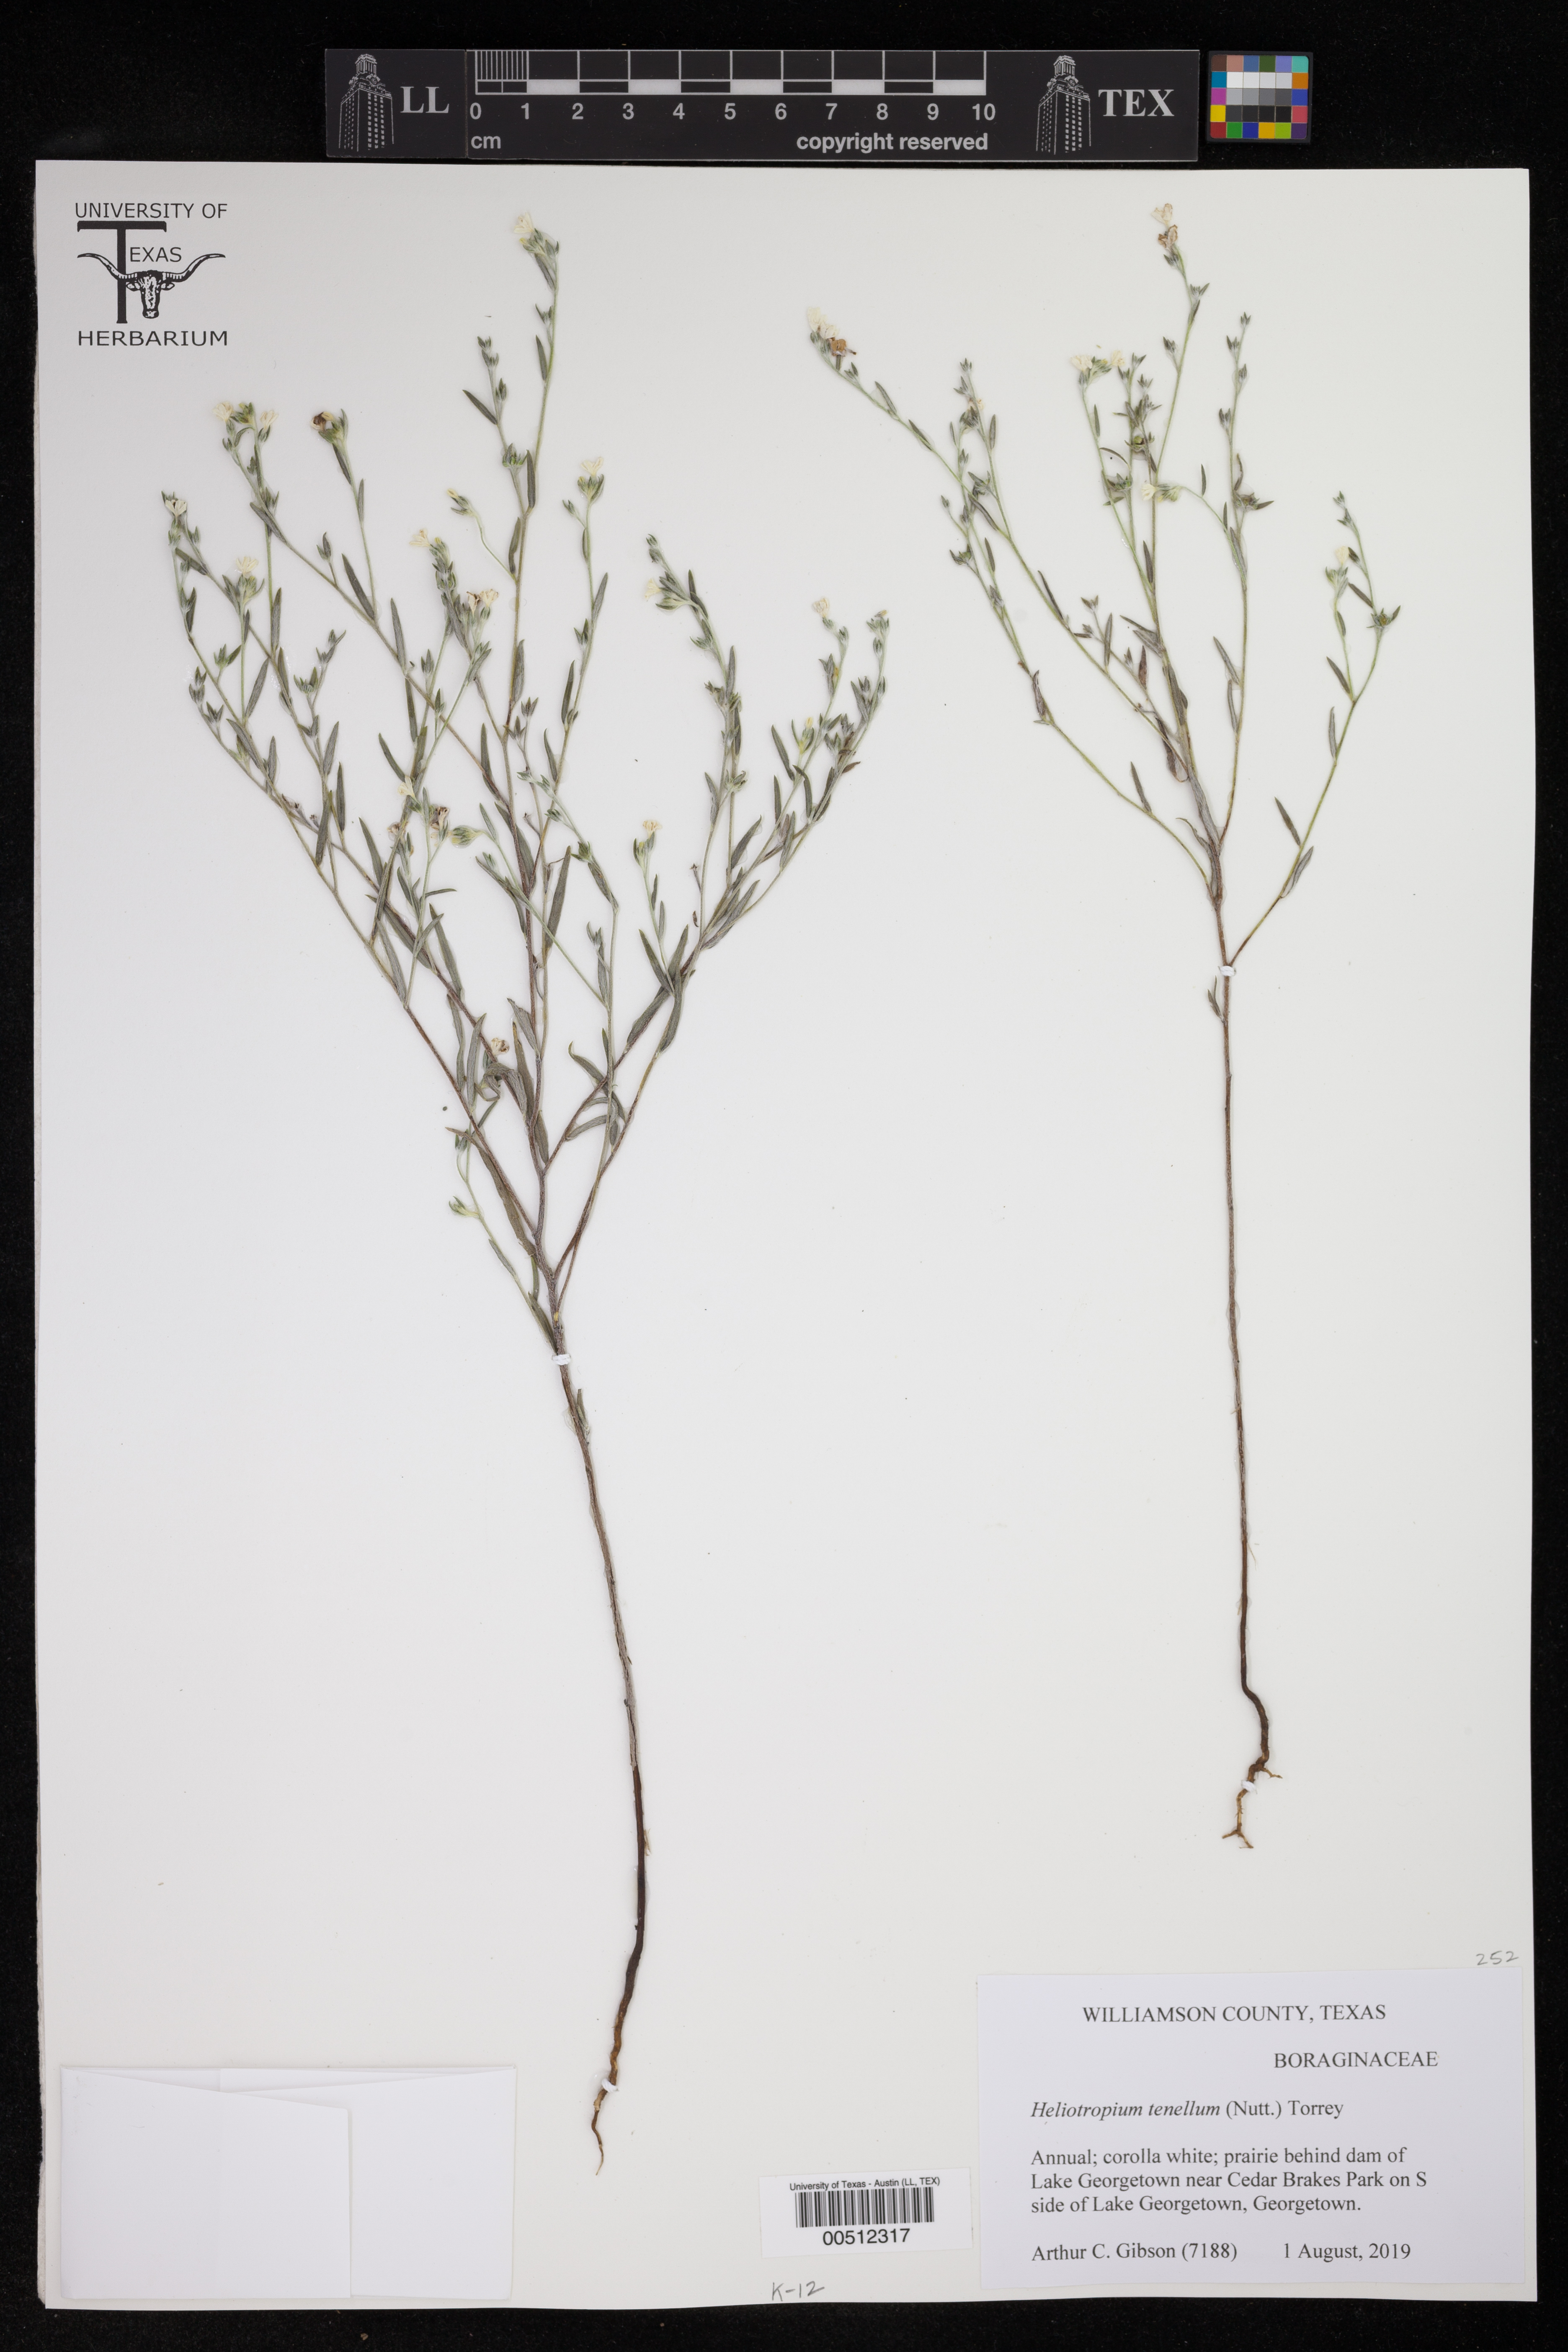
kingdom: Plantae
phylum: Tracheophyta
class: Magnoliopsida
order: Boraginales
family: Heliotropiaceae
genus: Euploca
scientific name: Euploca tenella
